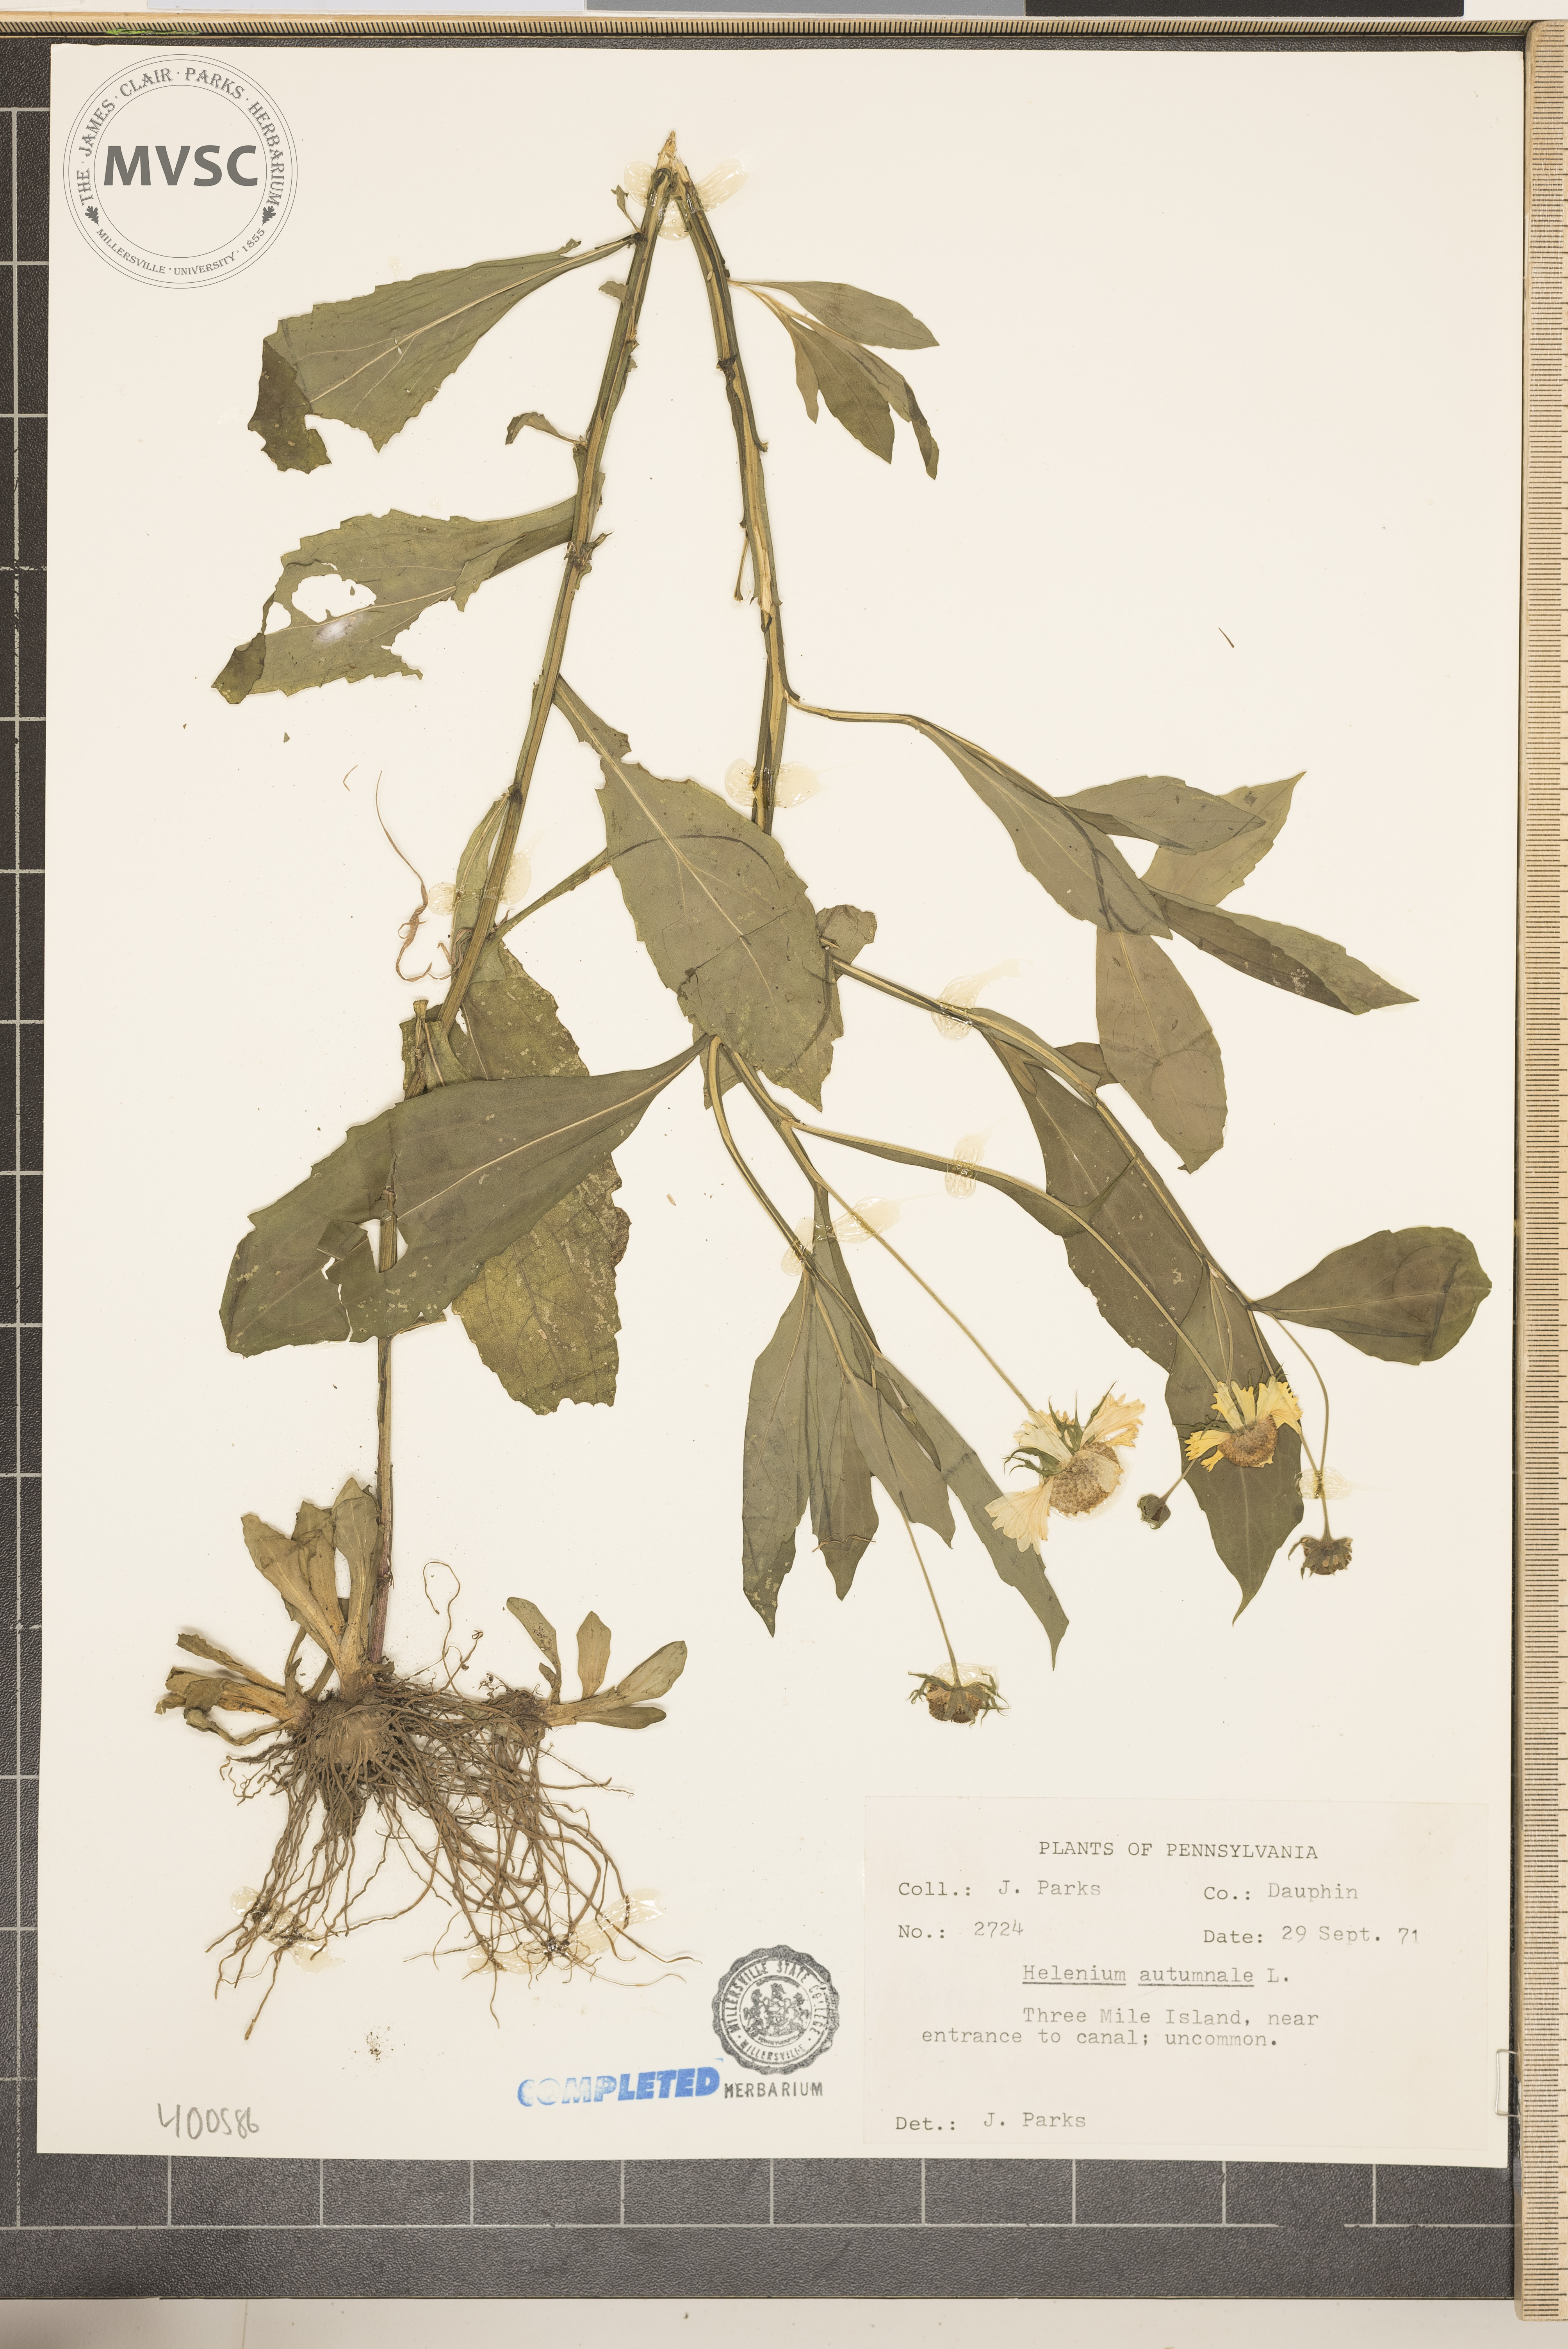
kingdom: Plantae
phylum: Tracheophyta
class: Magnoliopsida
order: Asterales
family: Asteraceae
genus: Helenium
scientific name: Helenium autumnale
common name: Sneezeweed
